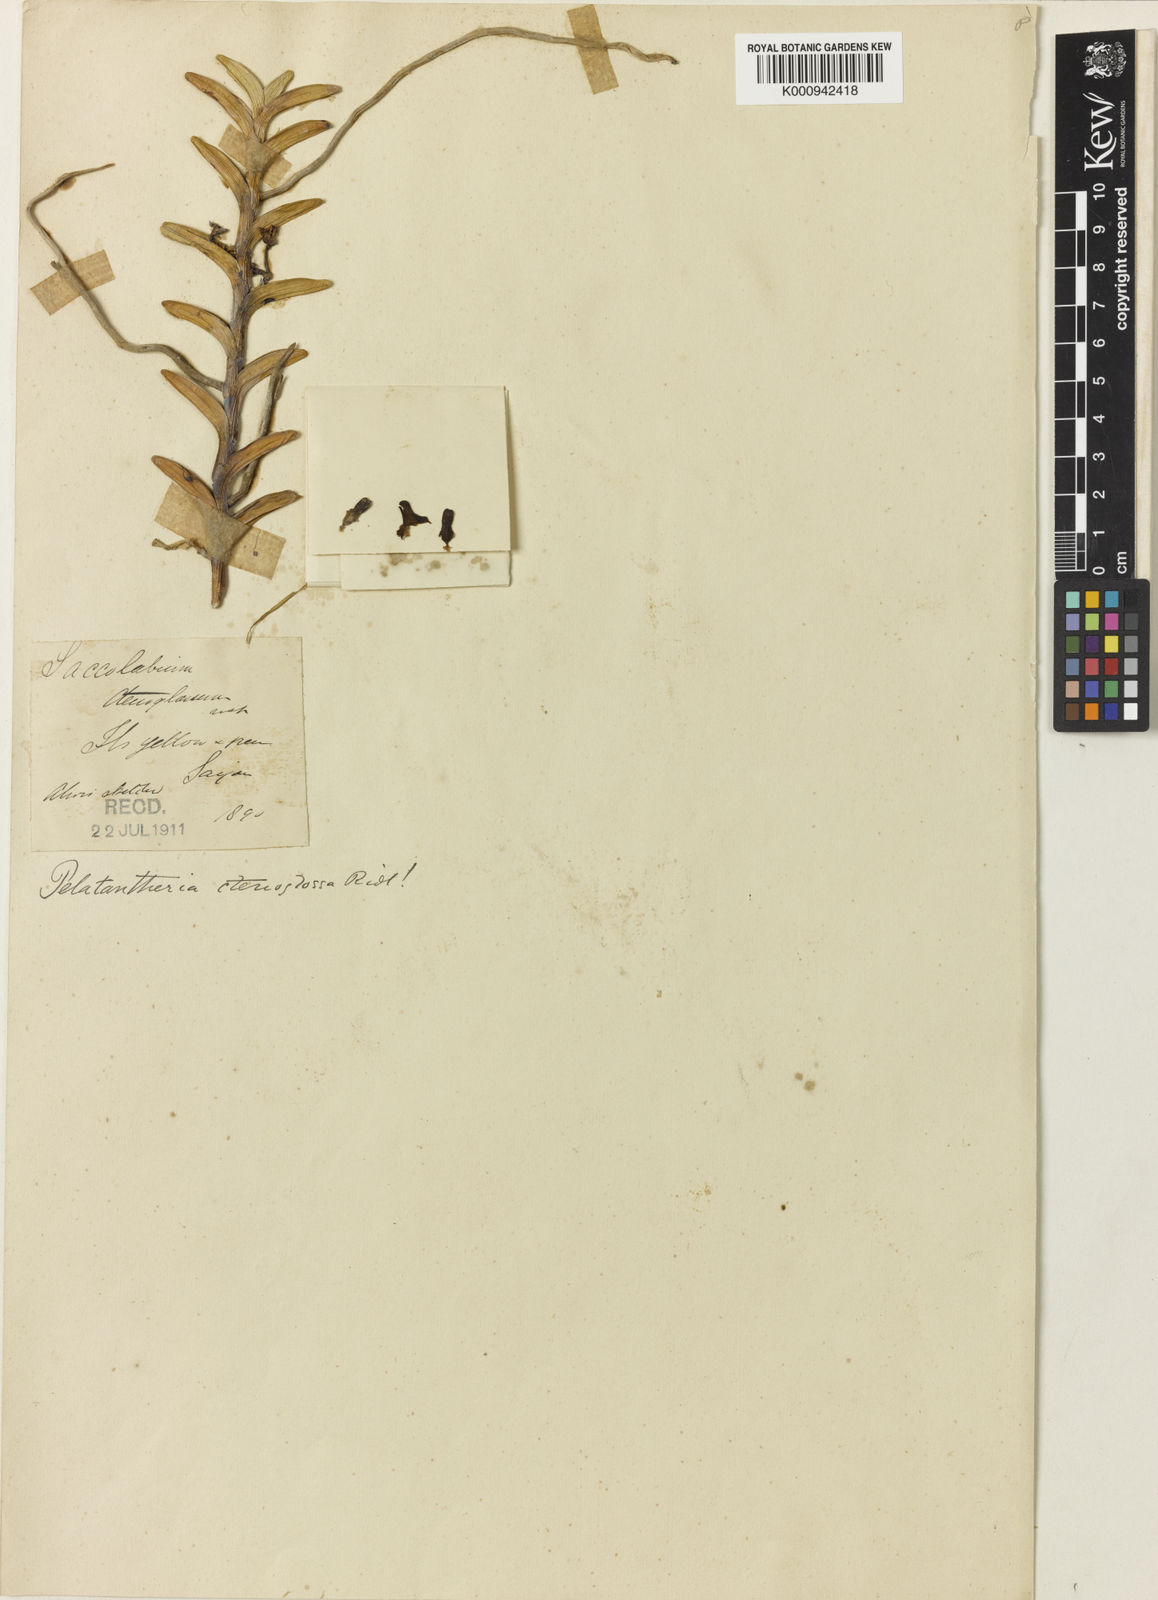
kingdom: Plantae
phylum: Tracheophyta
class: Liliopsida
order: Asparagales
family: Orchidaceae
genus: Pelatantheria
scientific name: Pelatantheria ctenoglossum
